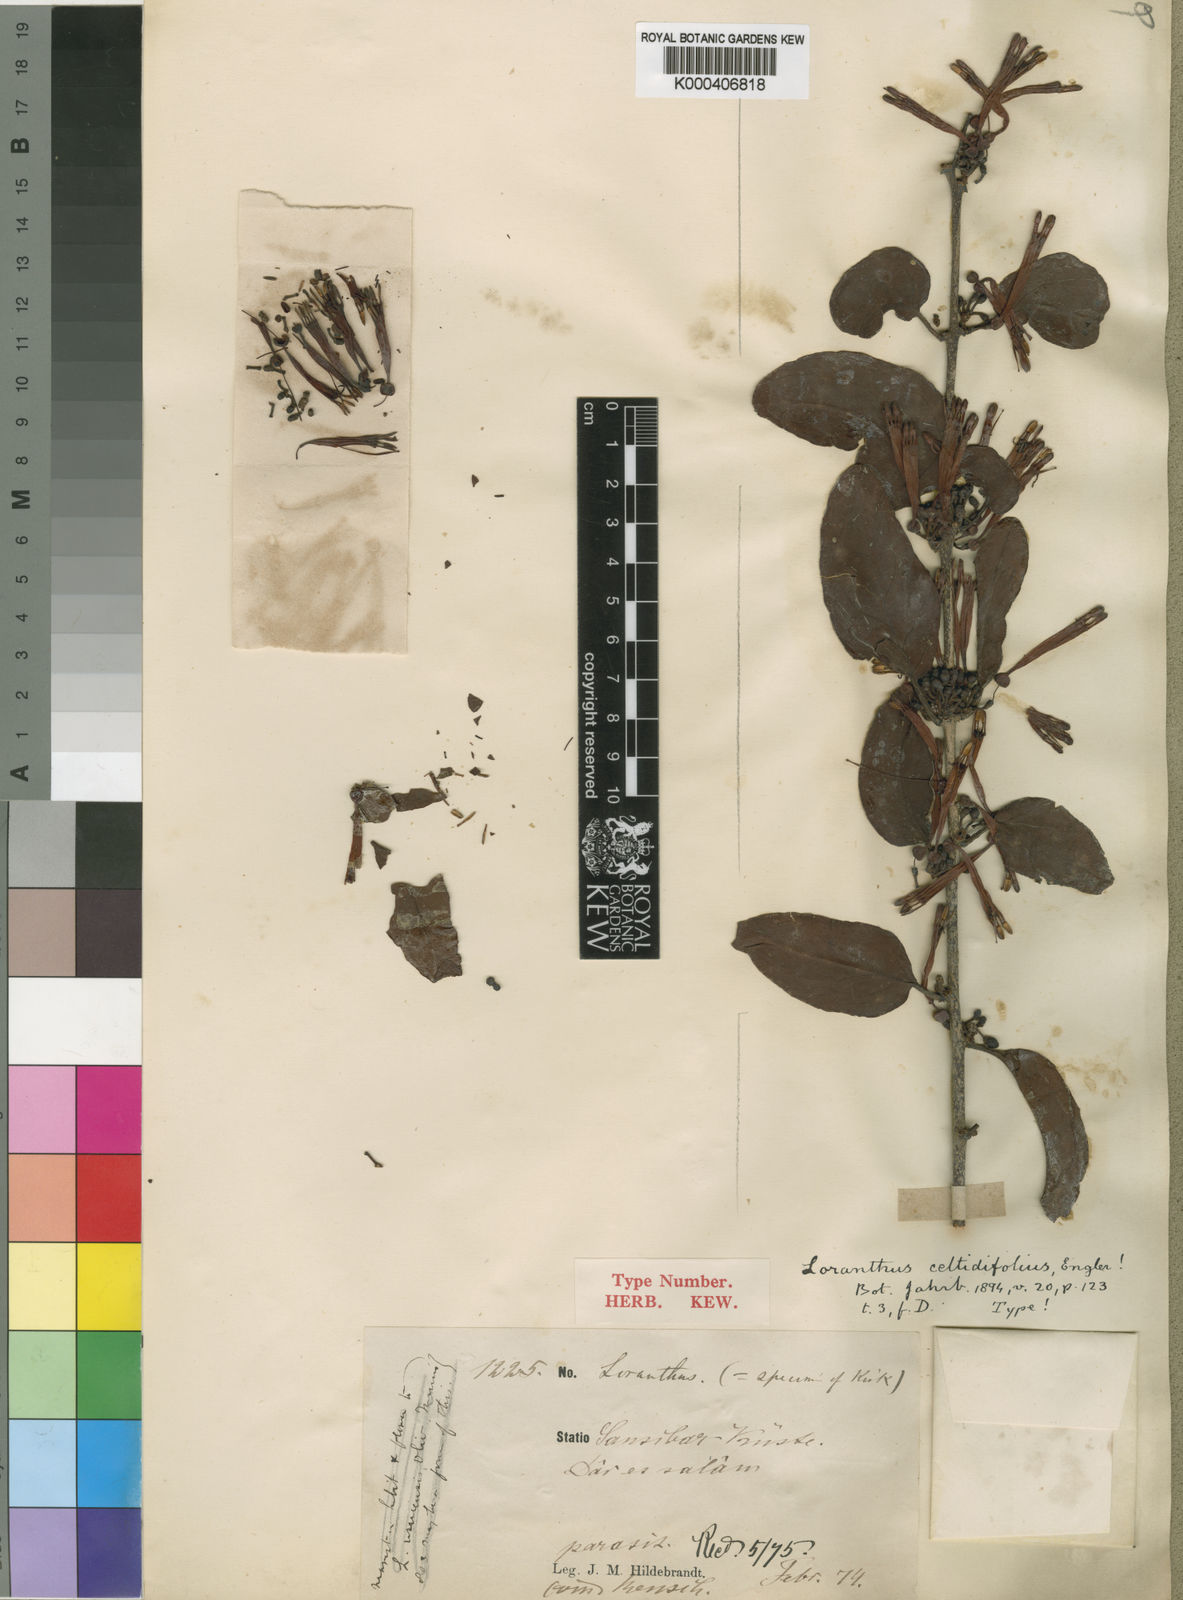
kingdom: Plantae
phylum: Tracheophyta
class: Magnoliopsida
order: Santalales
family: Loranthaceae
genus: Agelanthus
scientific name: Agelanthus heteromorphus
